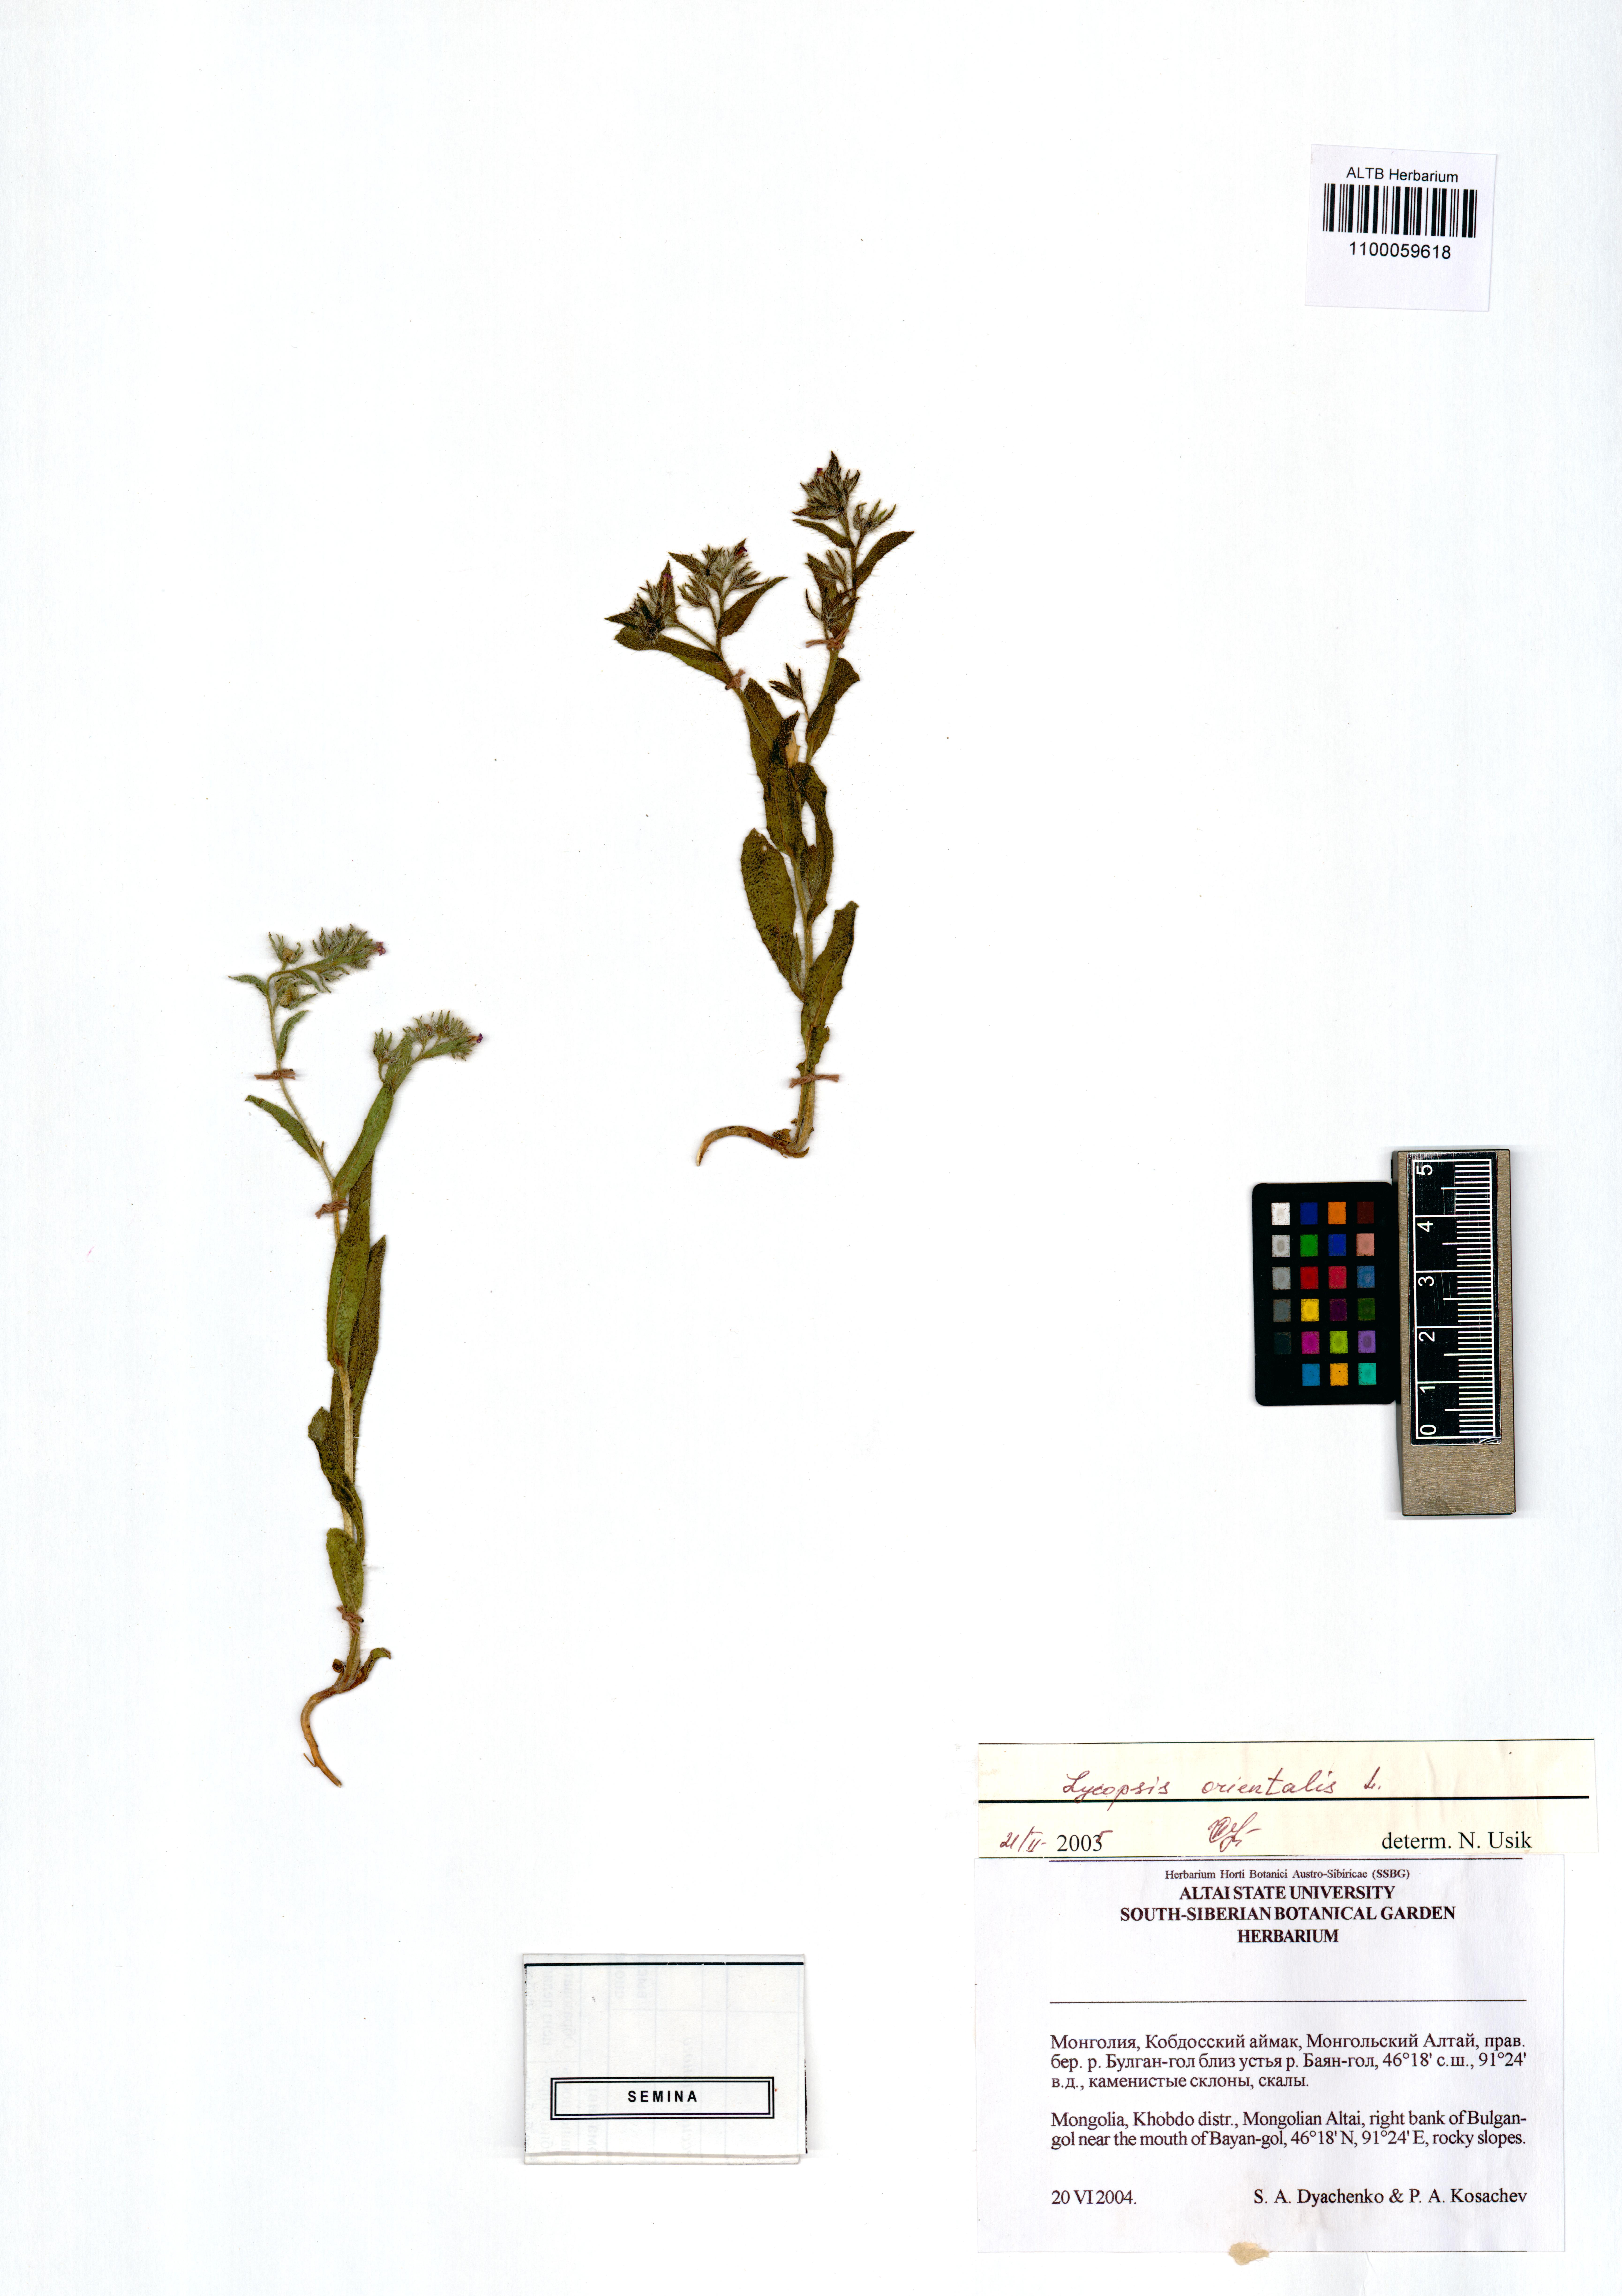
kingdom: Plantae
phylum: Tracheophyta
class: Magnoliopsida
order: Boraginales
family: Boraginaceae
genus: Lycopsis
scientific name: Lycopsis arvensis
